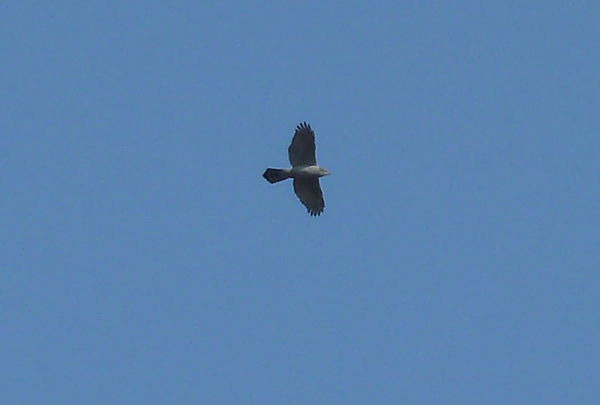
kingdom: Animalia
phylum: Chordata
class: Aves
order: Accipitriformes
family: Accipitridae
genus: Accipiter
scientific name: Accipiter gentilis
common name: Northern goshawk
